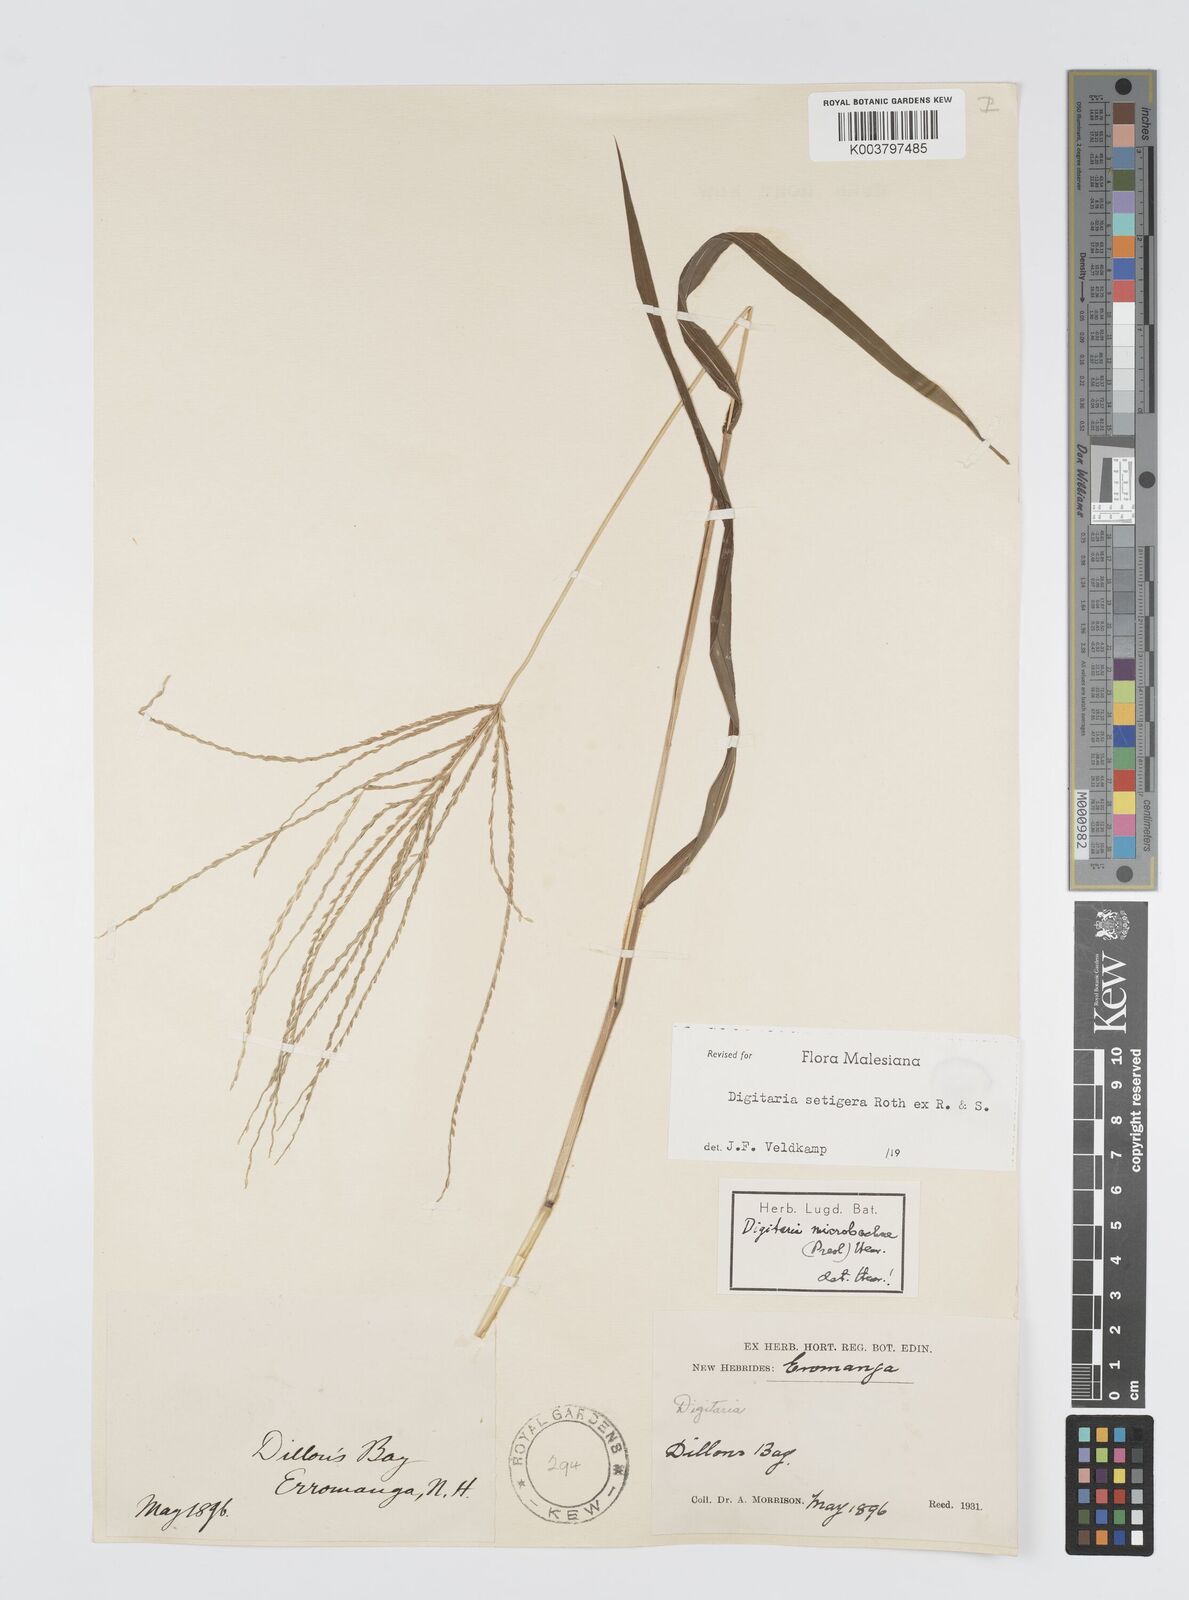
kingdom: Plantae
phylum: Tracheophyta
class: Liliopsida
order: Poales
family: Poaceae
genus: Digitaria
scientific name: Digitaria setigera
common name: East indian crabgrass
